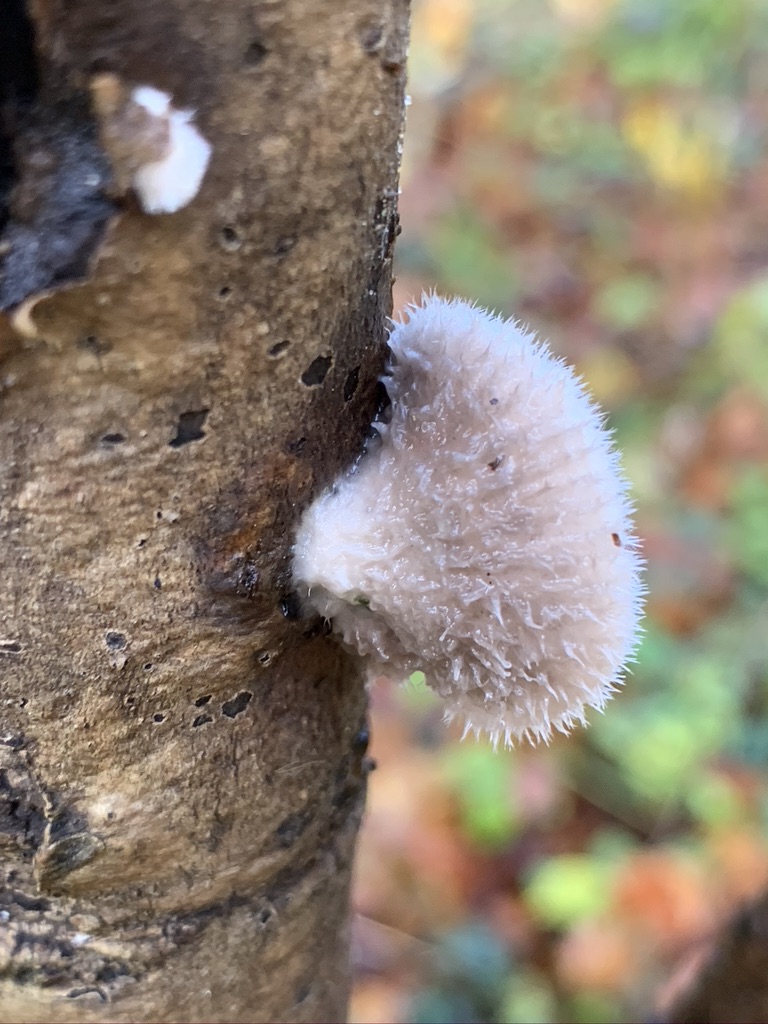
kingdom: Fungi
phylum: Basidiomycota
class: Agaricomycetes
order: Agaricales
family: Schizophyllaceae
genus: Schizophyllum
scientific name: Schizophyllum commune
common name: kløvblad
